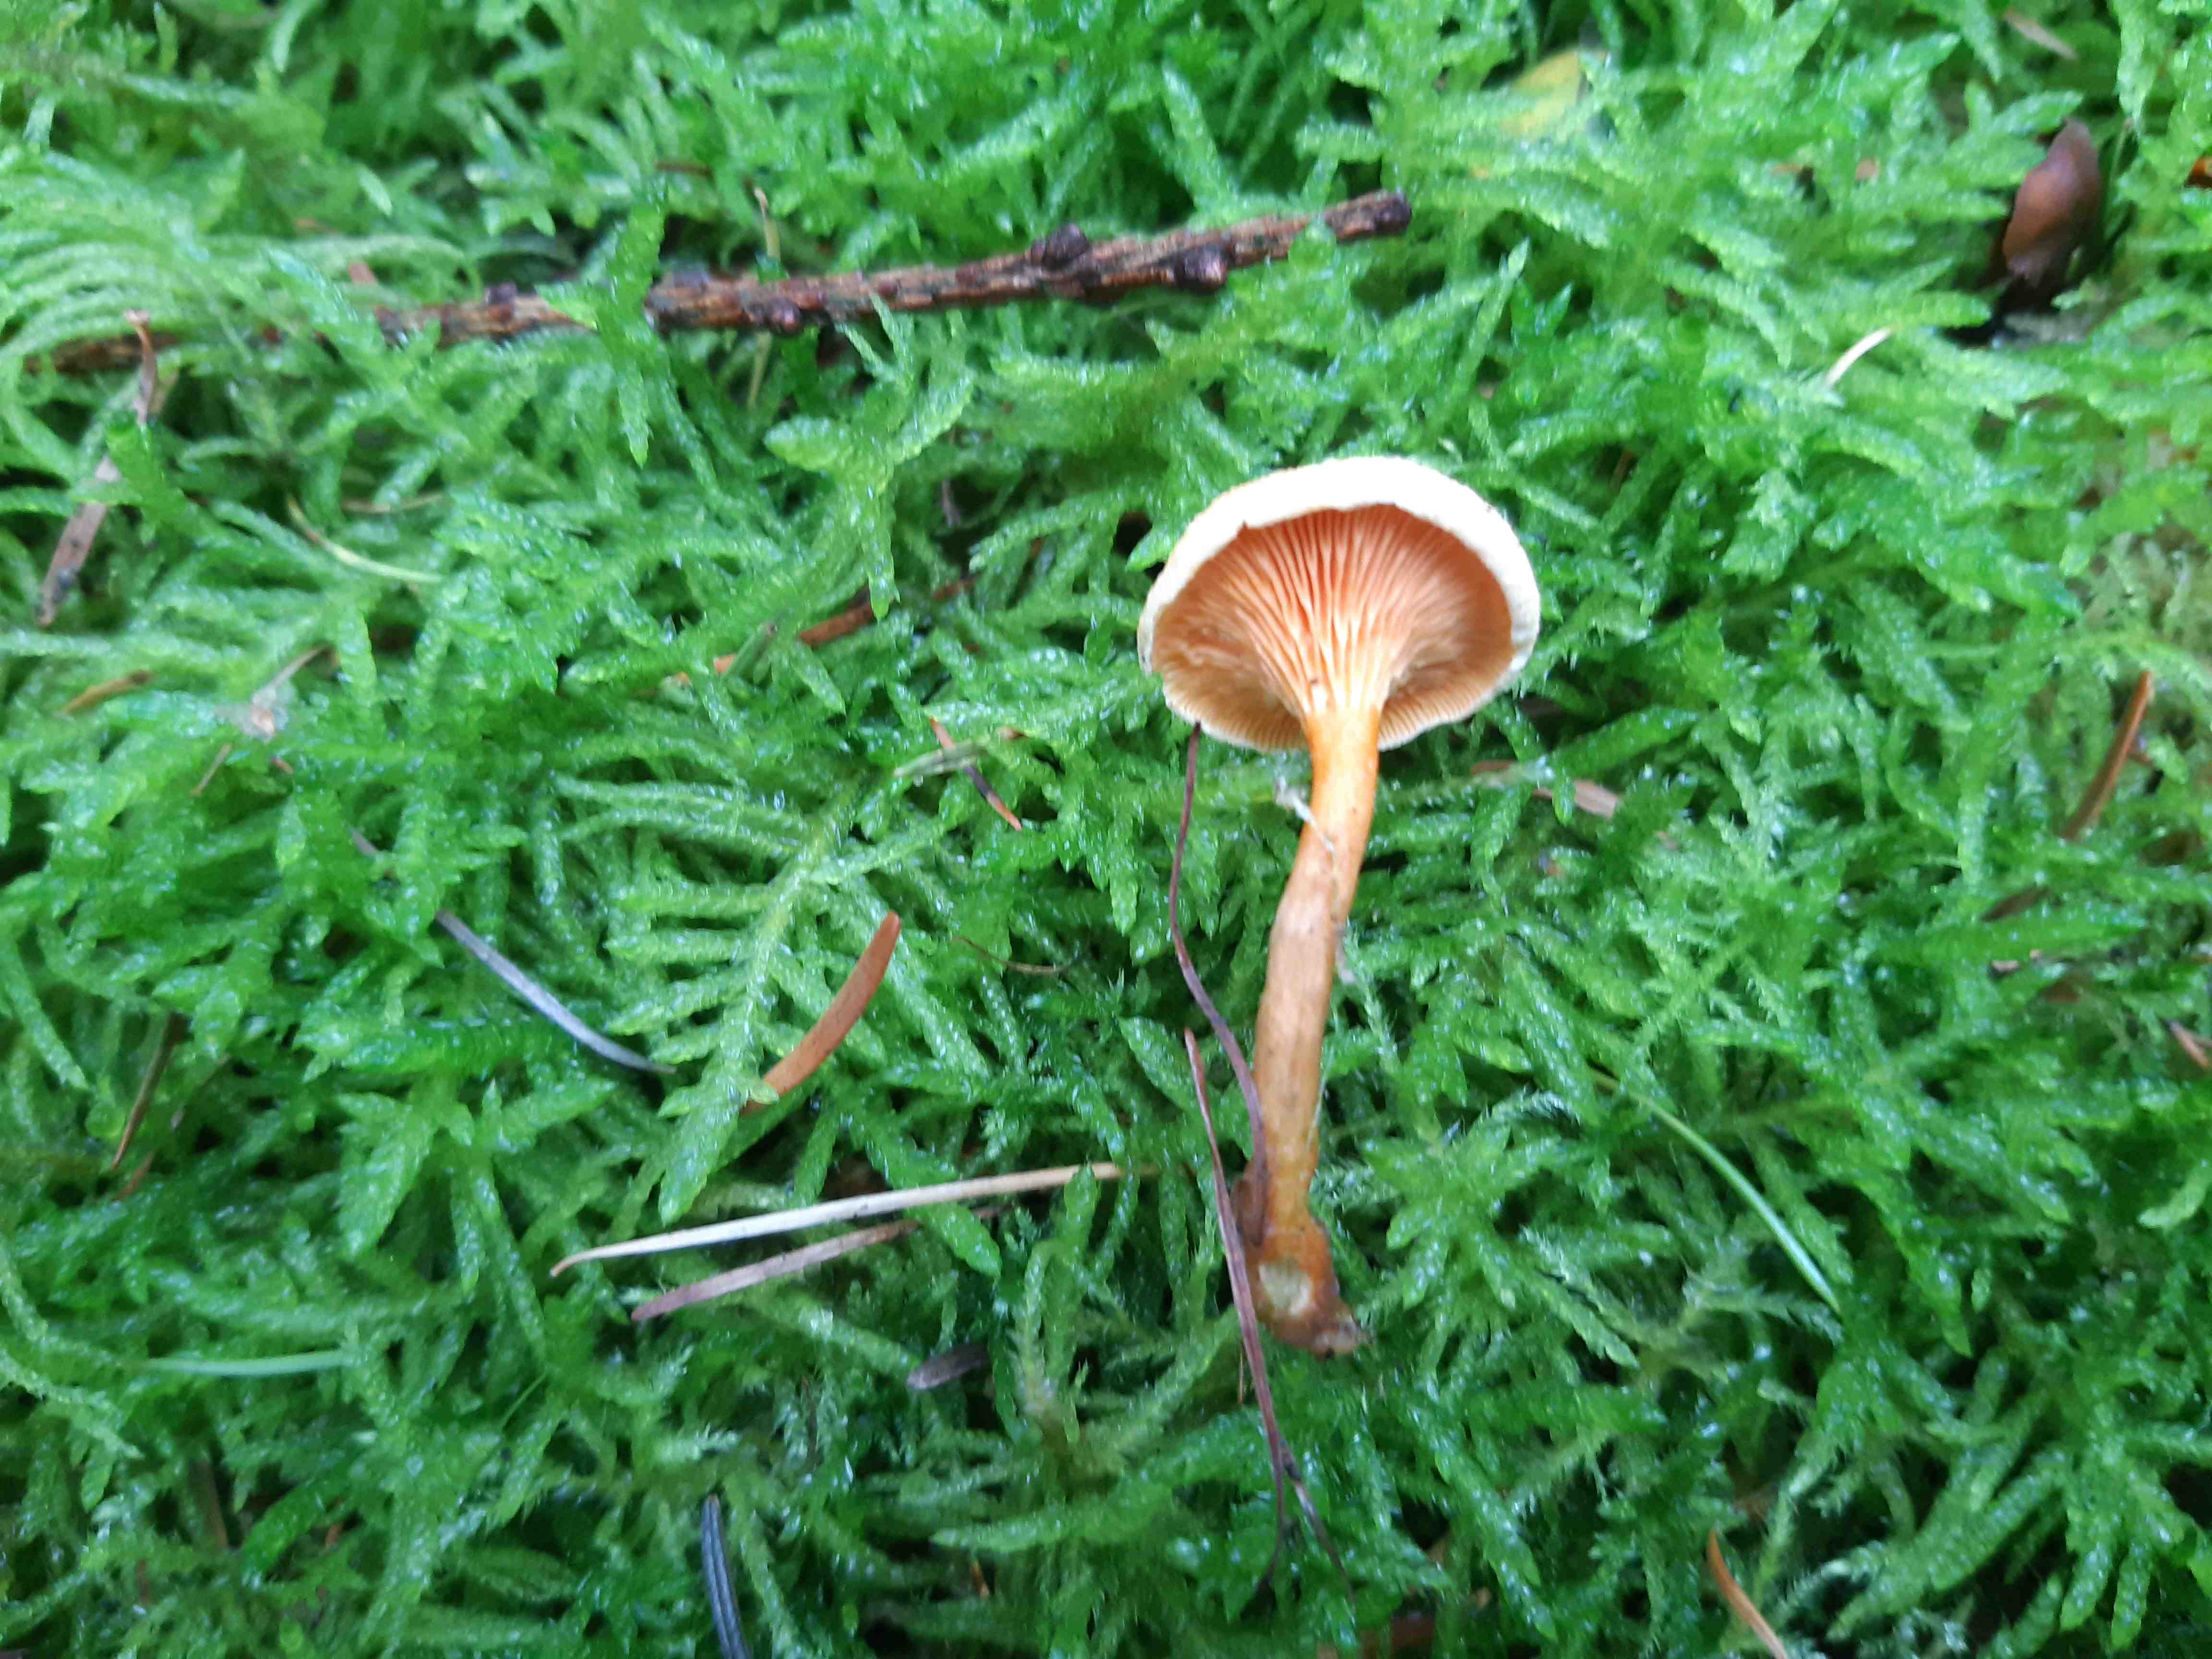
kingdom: Fungi
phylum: Basidiomycota
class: Agaricomycetes
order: Boletales
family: Hygrophoropsidaceae
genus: Hygrophoropsis
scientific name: Hygrophoropsis aurantiaca
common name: almindelig orangekantarel
